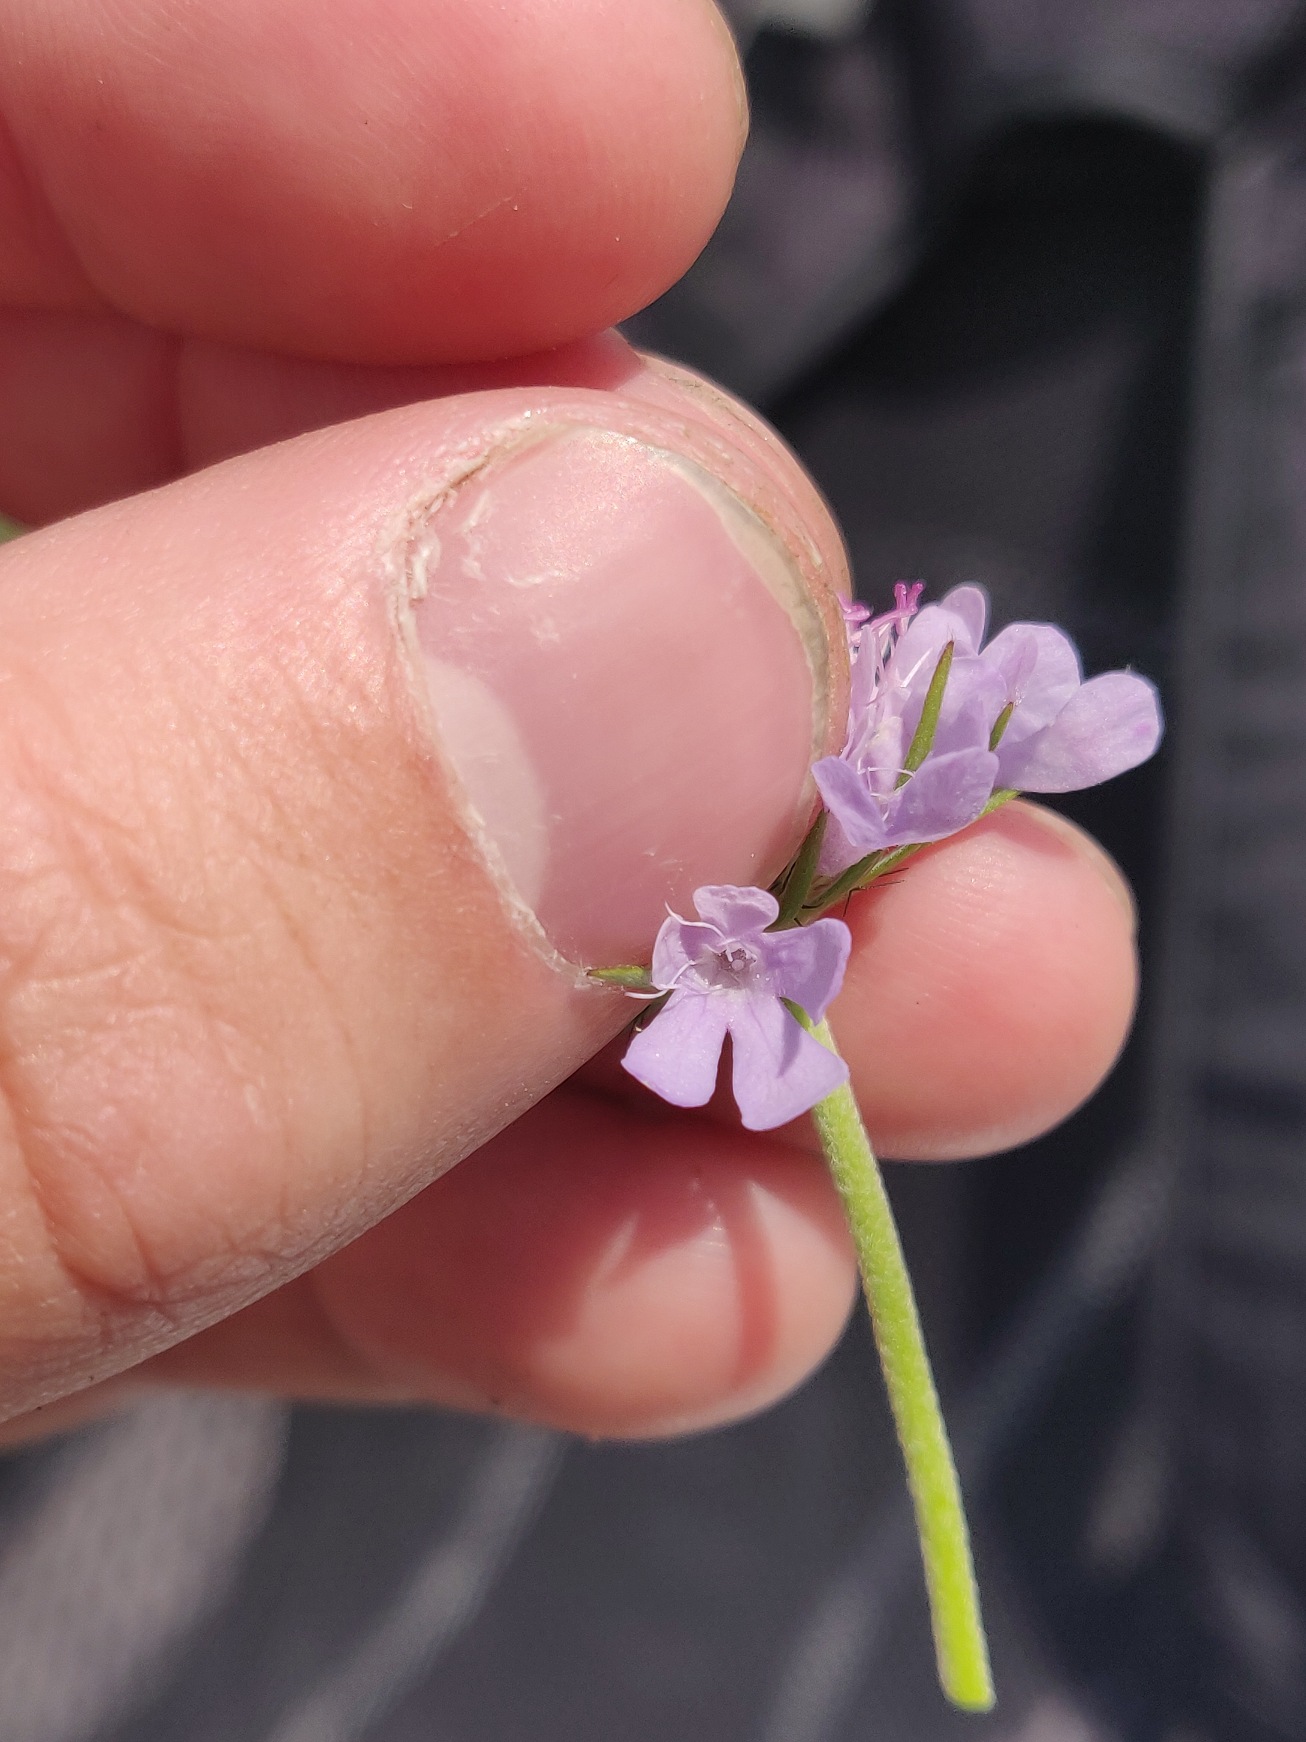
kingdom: Plantae
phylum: Tracheophyta
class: Magnoliopsida
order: Dipsacales
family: Caprifoliaceae
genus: Scabiosa
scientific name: Scabiosa columbaria
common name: Due-skabiose
